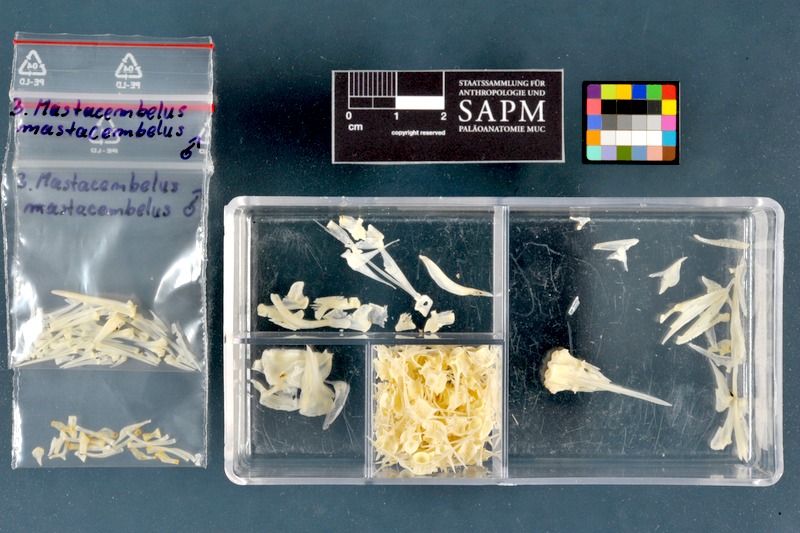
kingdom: Animalia
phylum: Chordata
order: Synbranchiformes
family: Mastacembelidae
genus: Mastacembelus
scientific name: Mastacembelus mastacembelus
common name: Mesopotamian spiny eel
